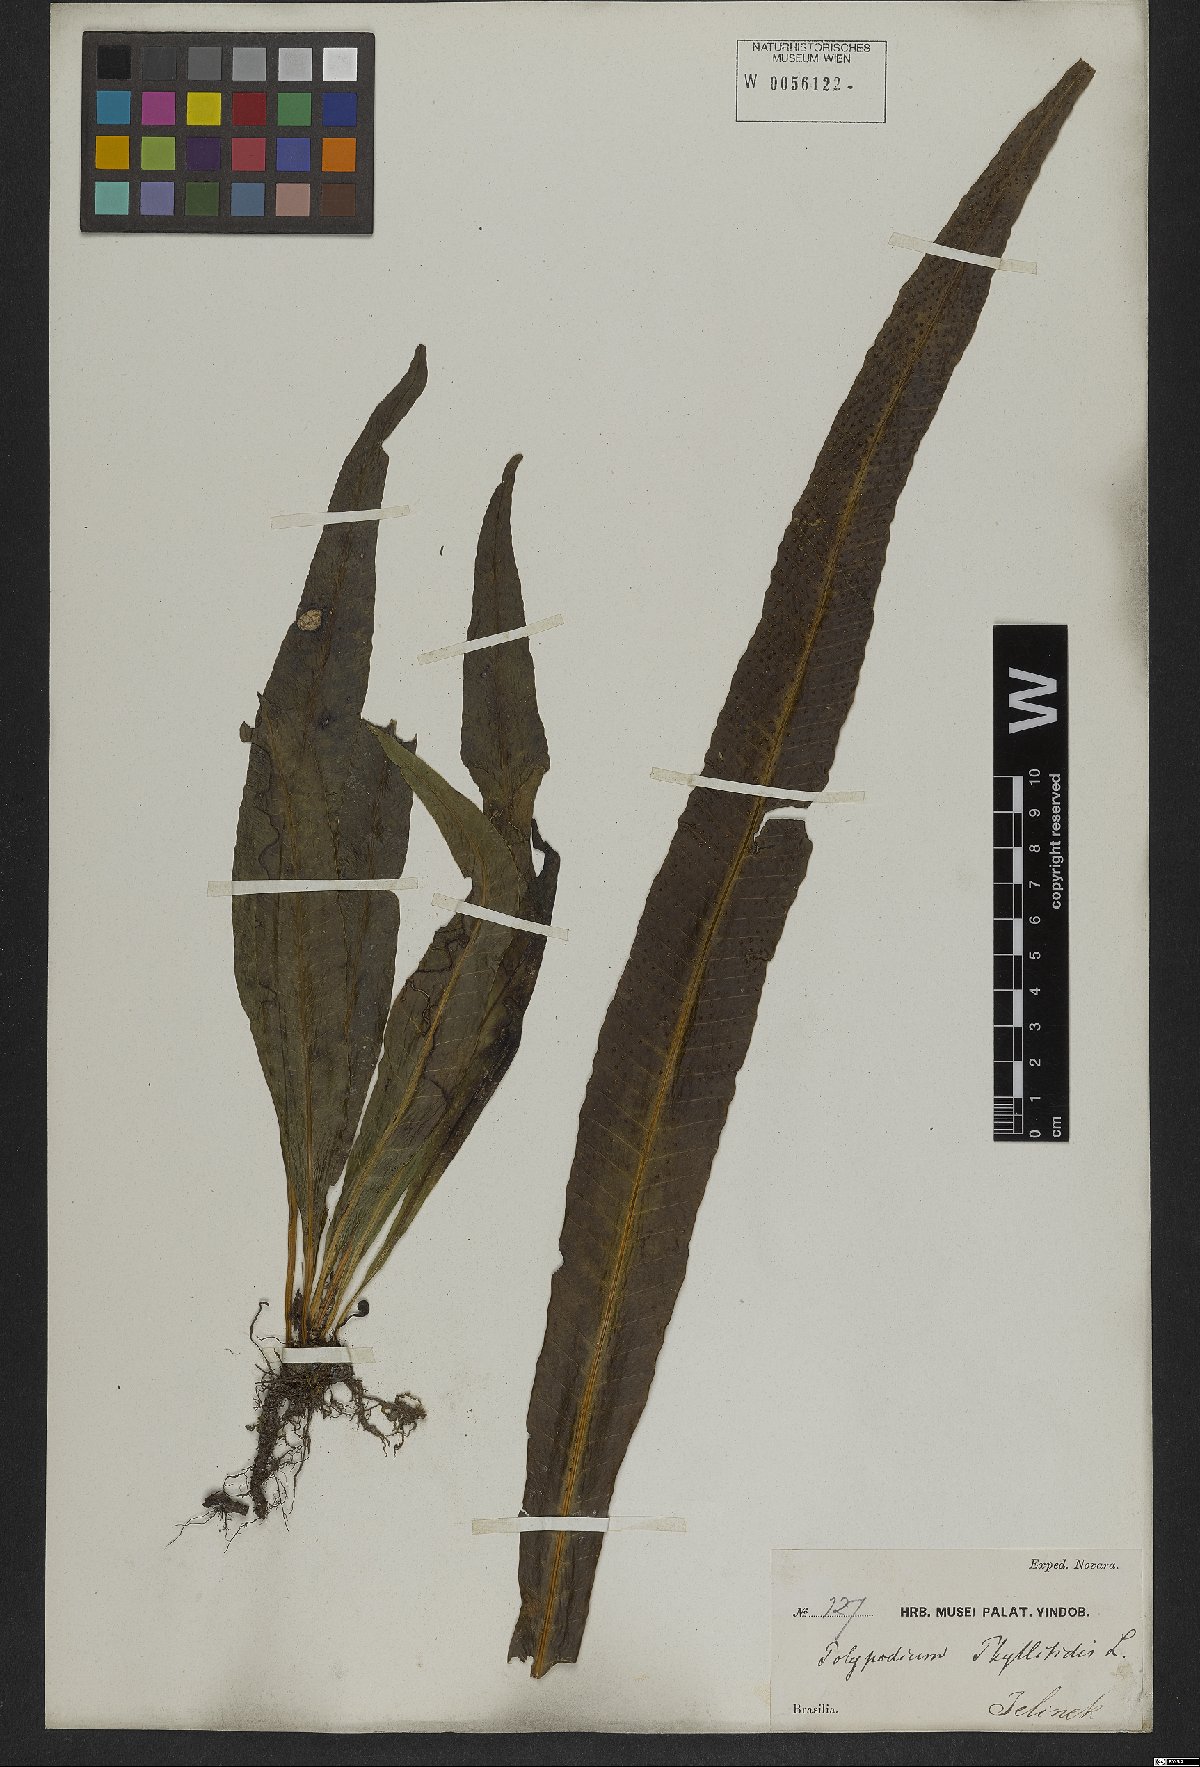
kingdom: Plantae
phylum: Tracheophyta
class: Polypodiopsida
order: Polypodiales
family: Polypodiaceae
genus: Campyloneurum
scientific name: Campyloneurum phyllitidis
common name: Cow-tongue fern
